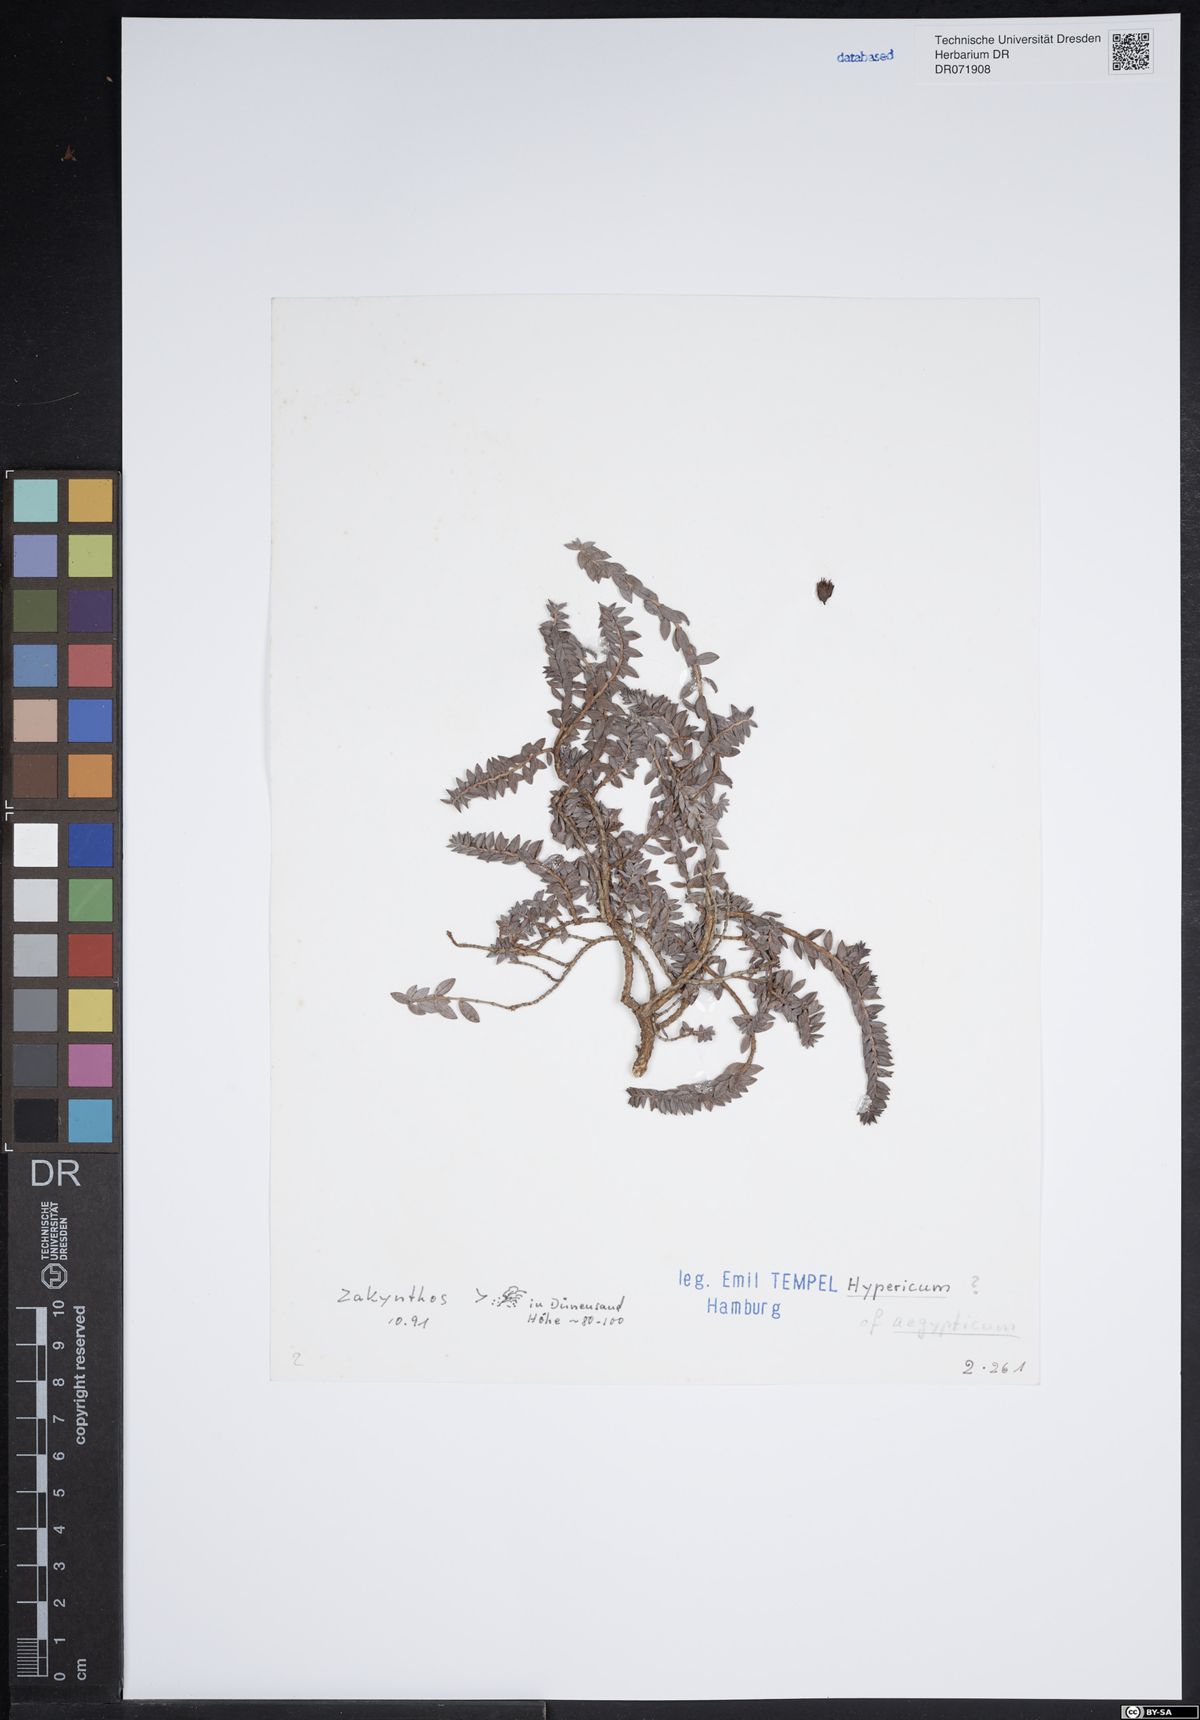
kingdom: Plantae
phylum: Tracheophyta
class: Magnoliopsida
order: Malpighiales
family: Hypericaceae
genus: Hypericum
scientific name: Hypericum aegypticum
